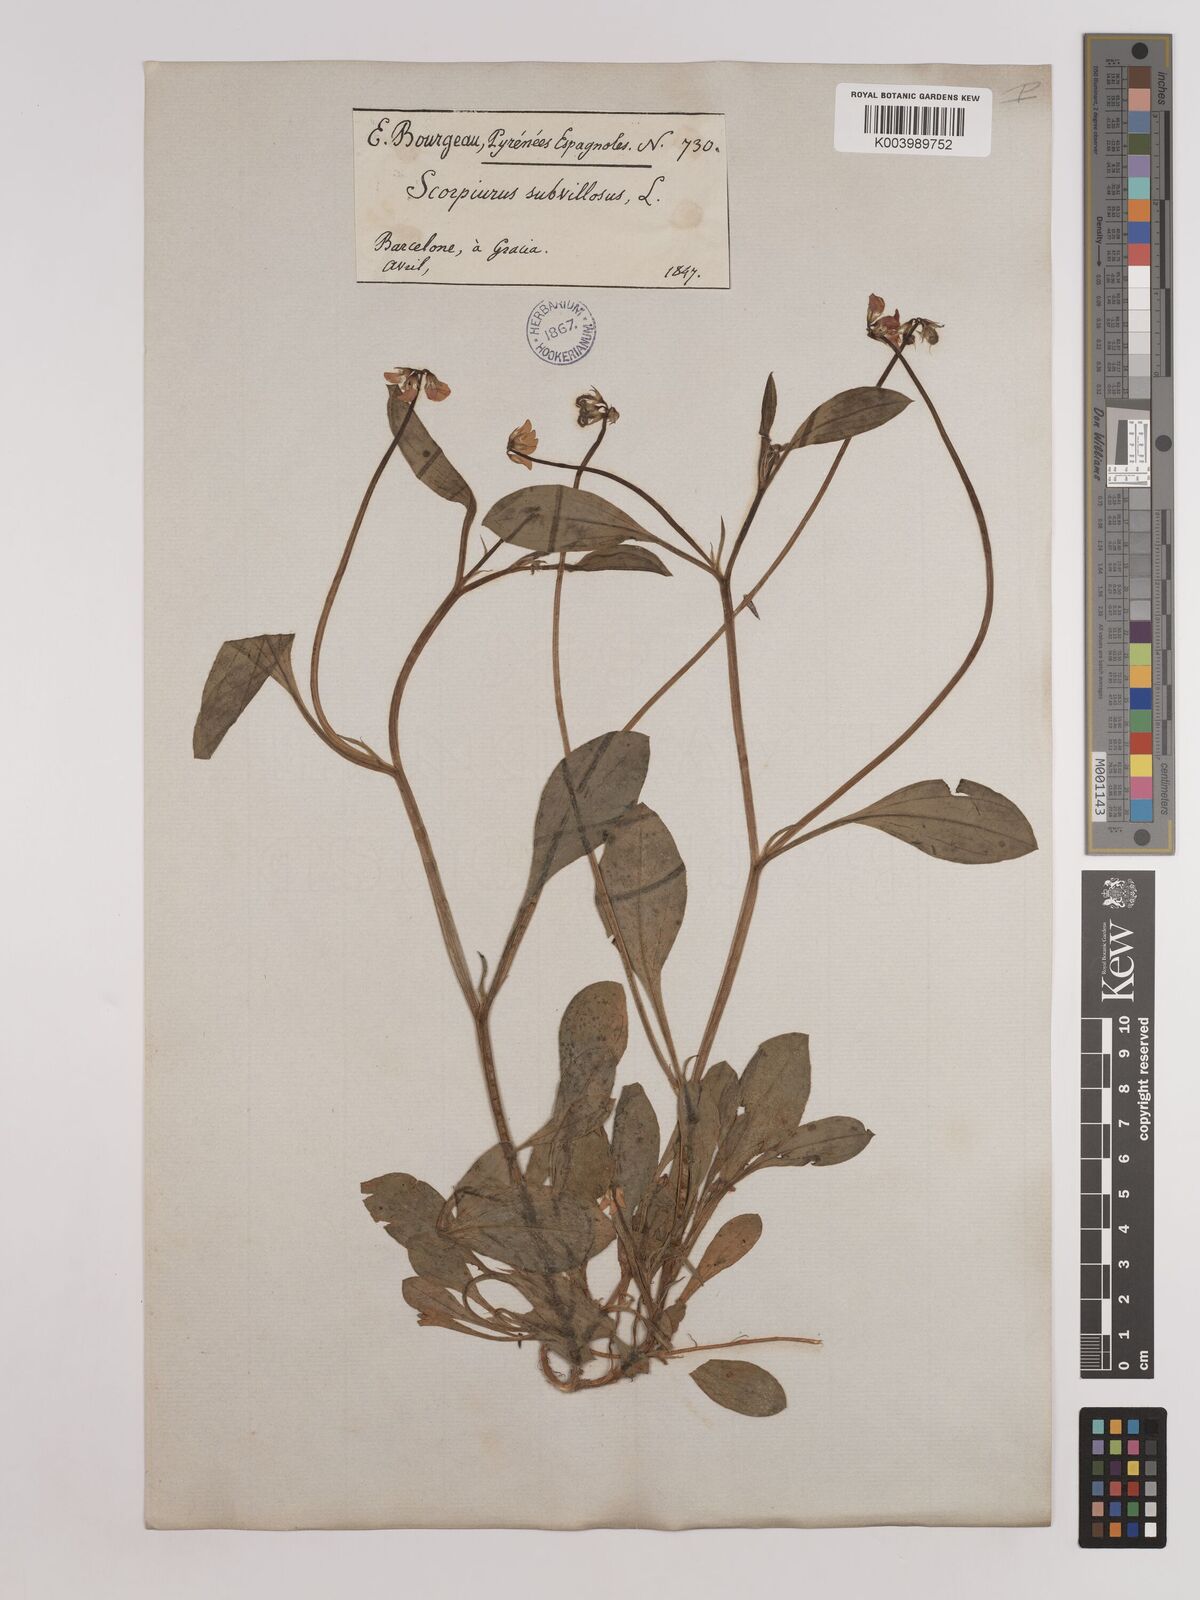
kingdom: Plantae
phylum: Tracheophyta
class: Magnoliopsida
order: Fabales
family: Fabaceae
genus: Scorpiurus
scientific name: Scorpiurus muricatus
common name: Caterpillar-plant
